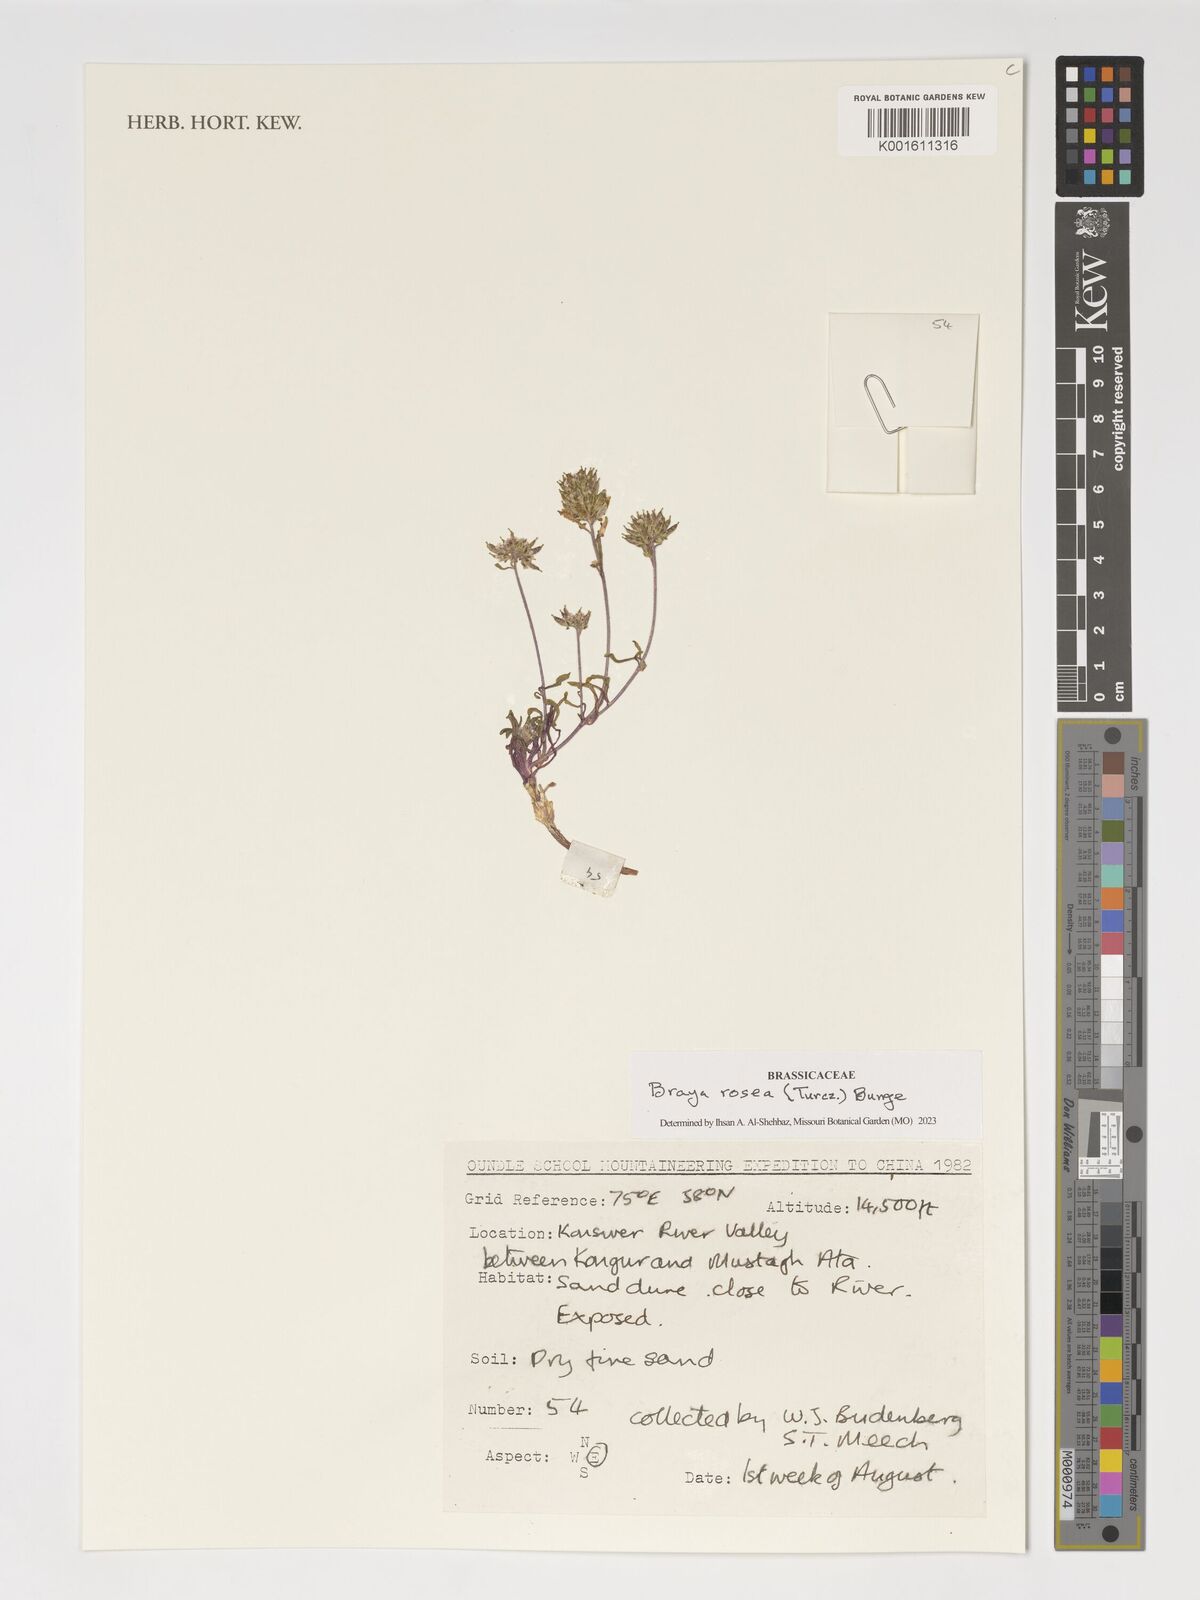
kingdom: Plantae
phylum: Tracheophyta
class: Magnoliopsida
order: Brassicales
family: Brassicaceae
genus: Braya
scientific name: Braya rosea
